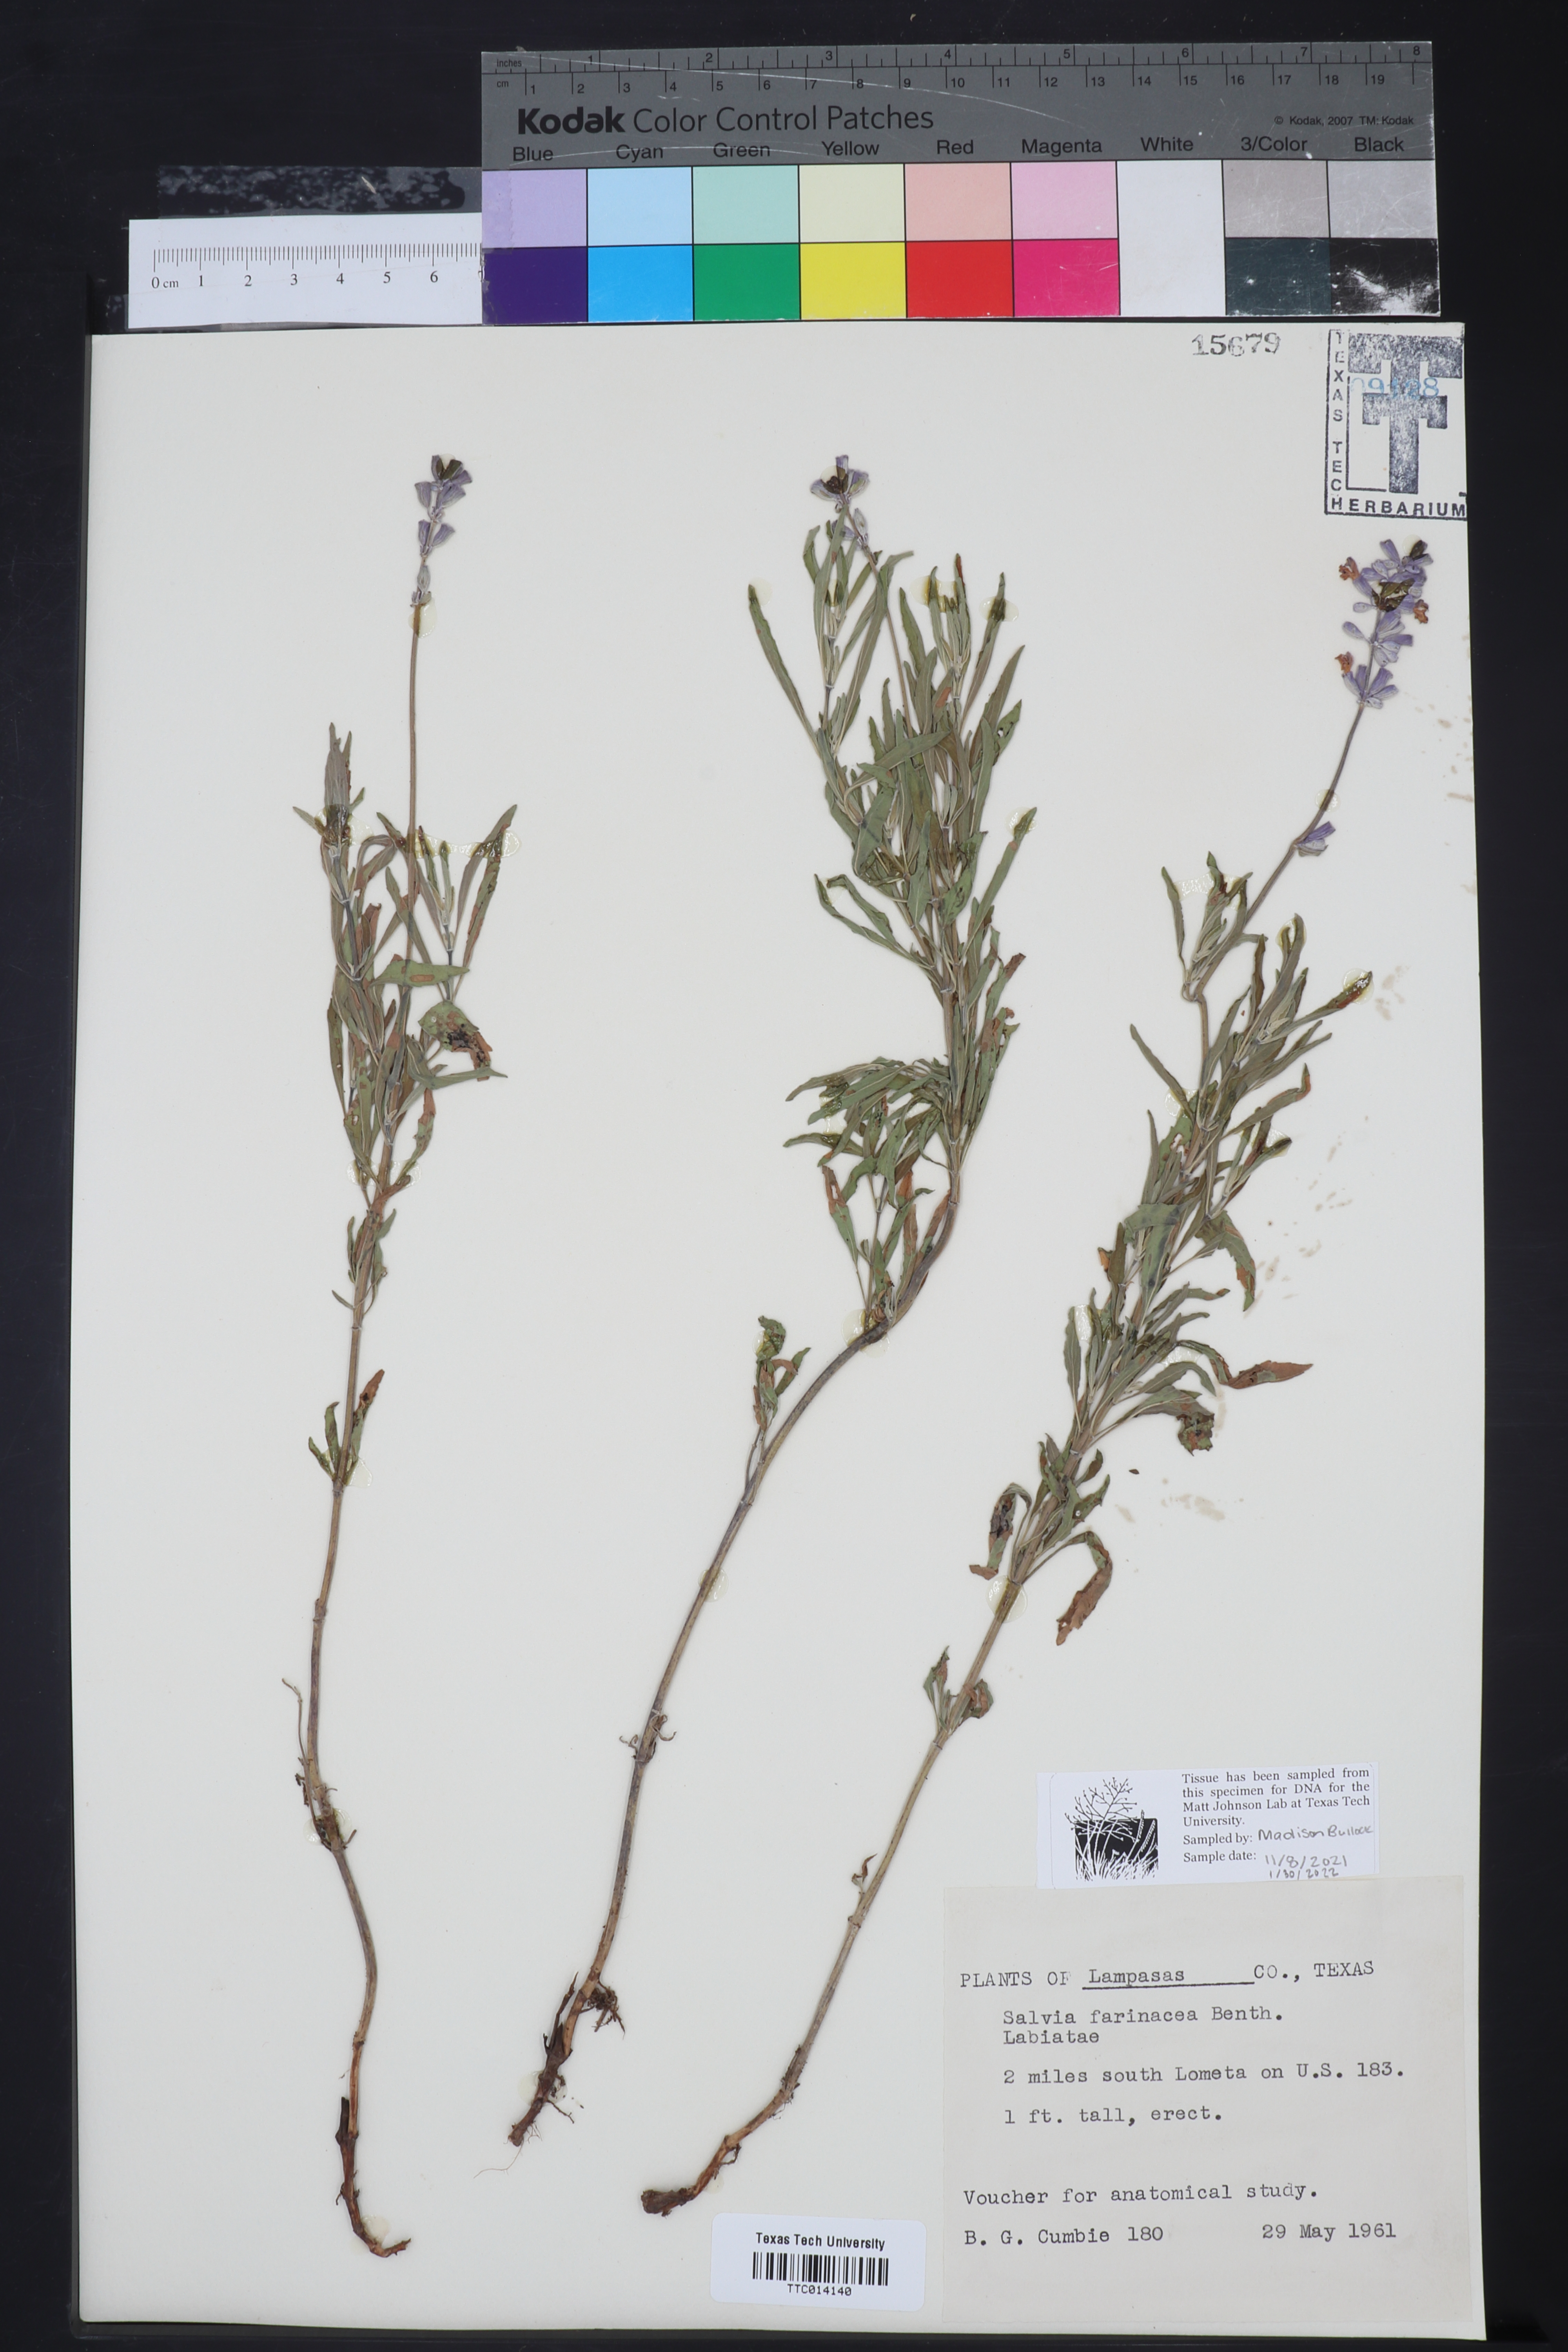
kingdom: Plantae
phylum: Tracheophyta
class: Magnoliopsida
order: Lamiales
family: Lamiaceae
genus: Salvia
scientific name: Salvia farinacea
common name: Mealy sage
